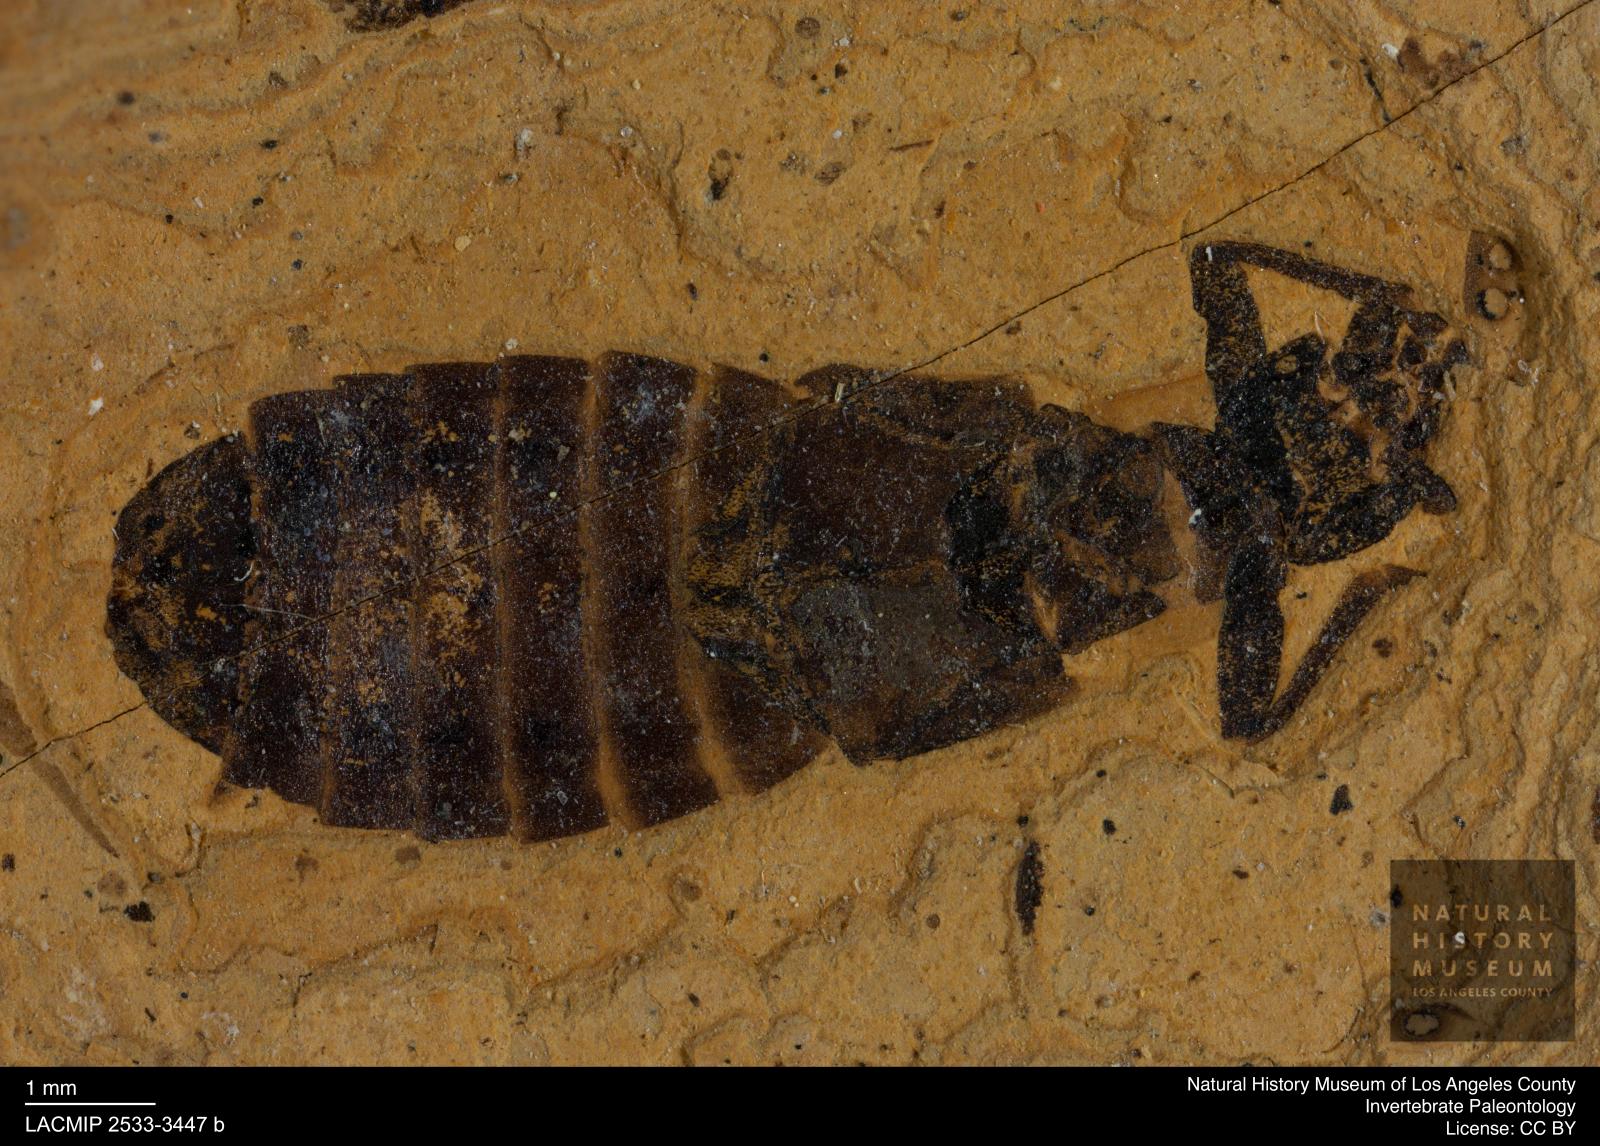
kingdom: Animalia
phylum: Arthropoda
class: Insecta
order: Coleoptera
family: Cantharidae
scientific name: Cantharidae
